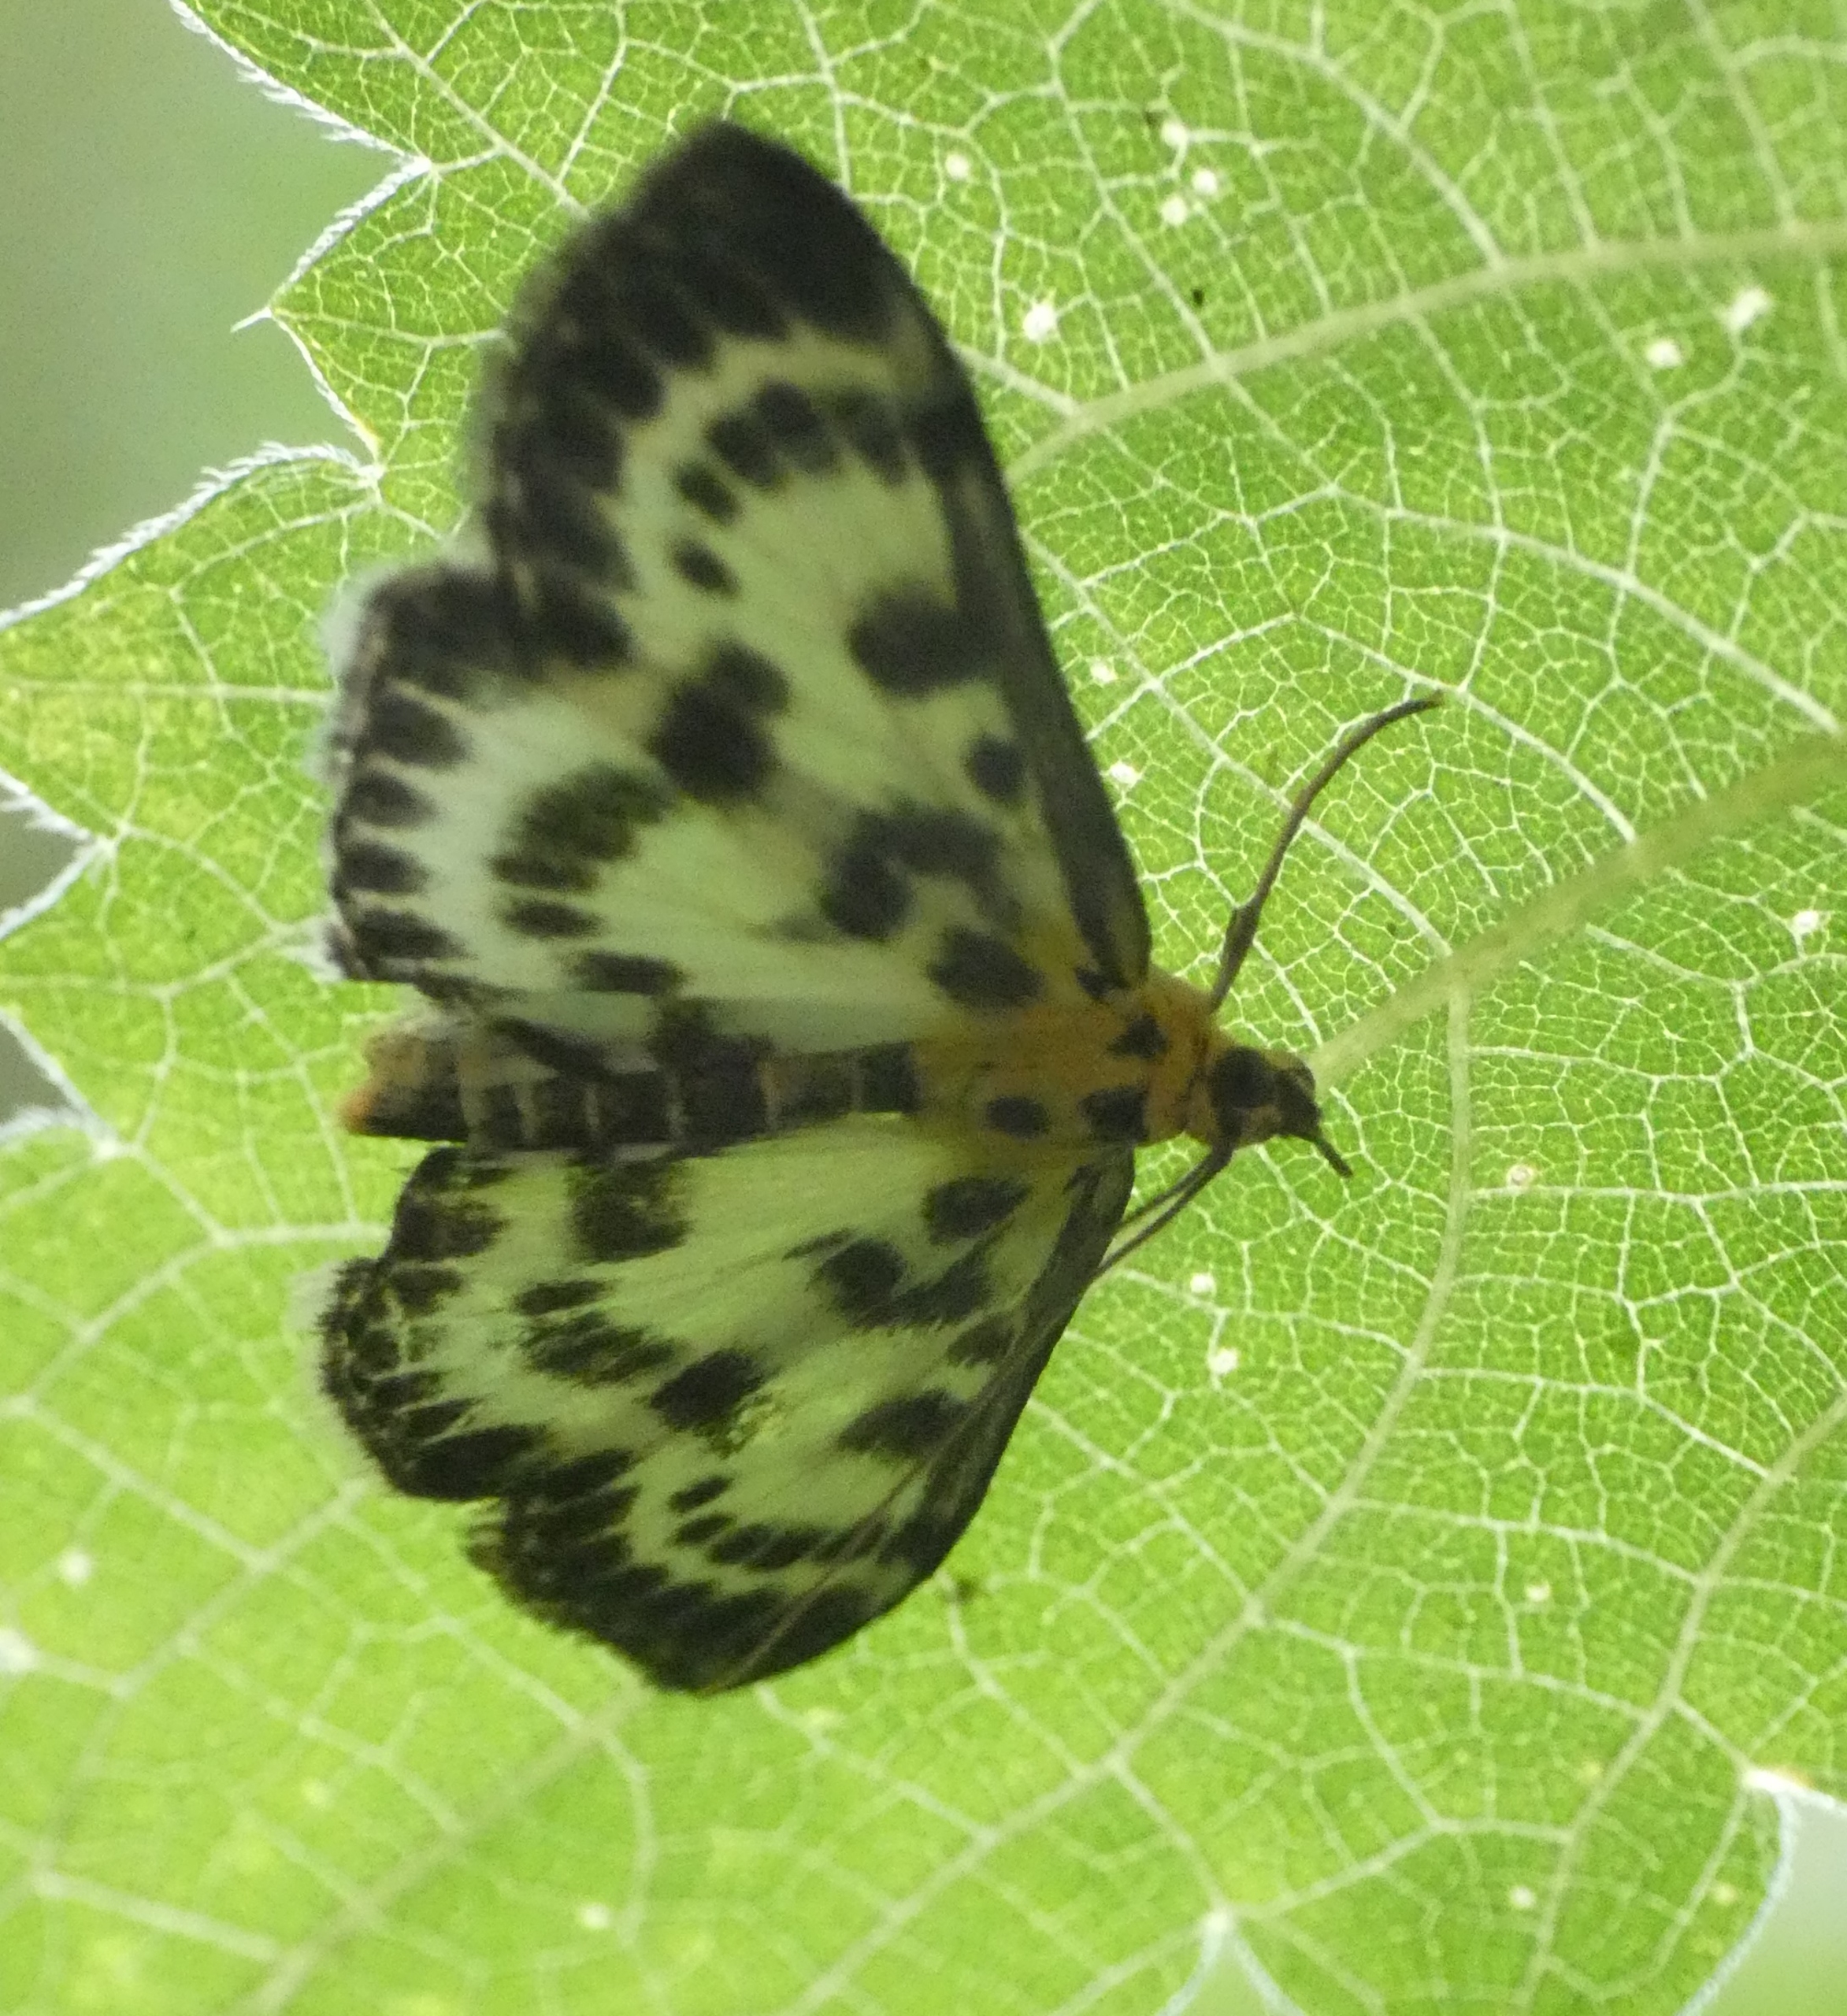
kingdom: Animalia
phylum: Arthropoda
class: Insecta
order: Lepidoptera
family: Crambidae
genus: Anania
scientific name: Anania hortulata
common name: Nældehalvmøl
